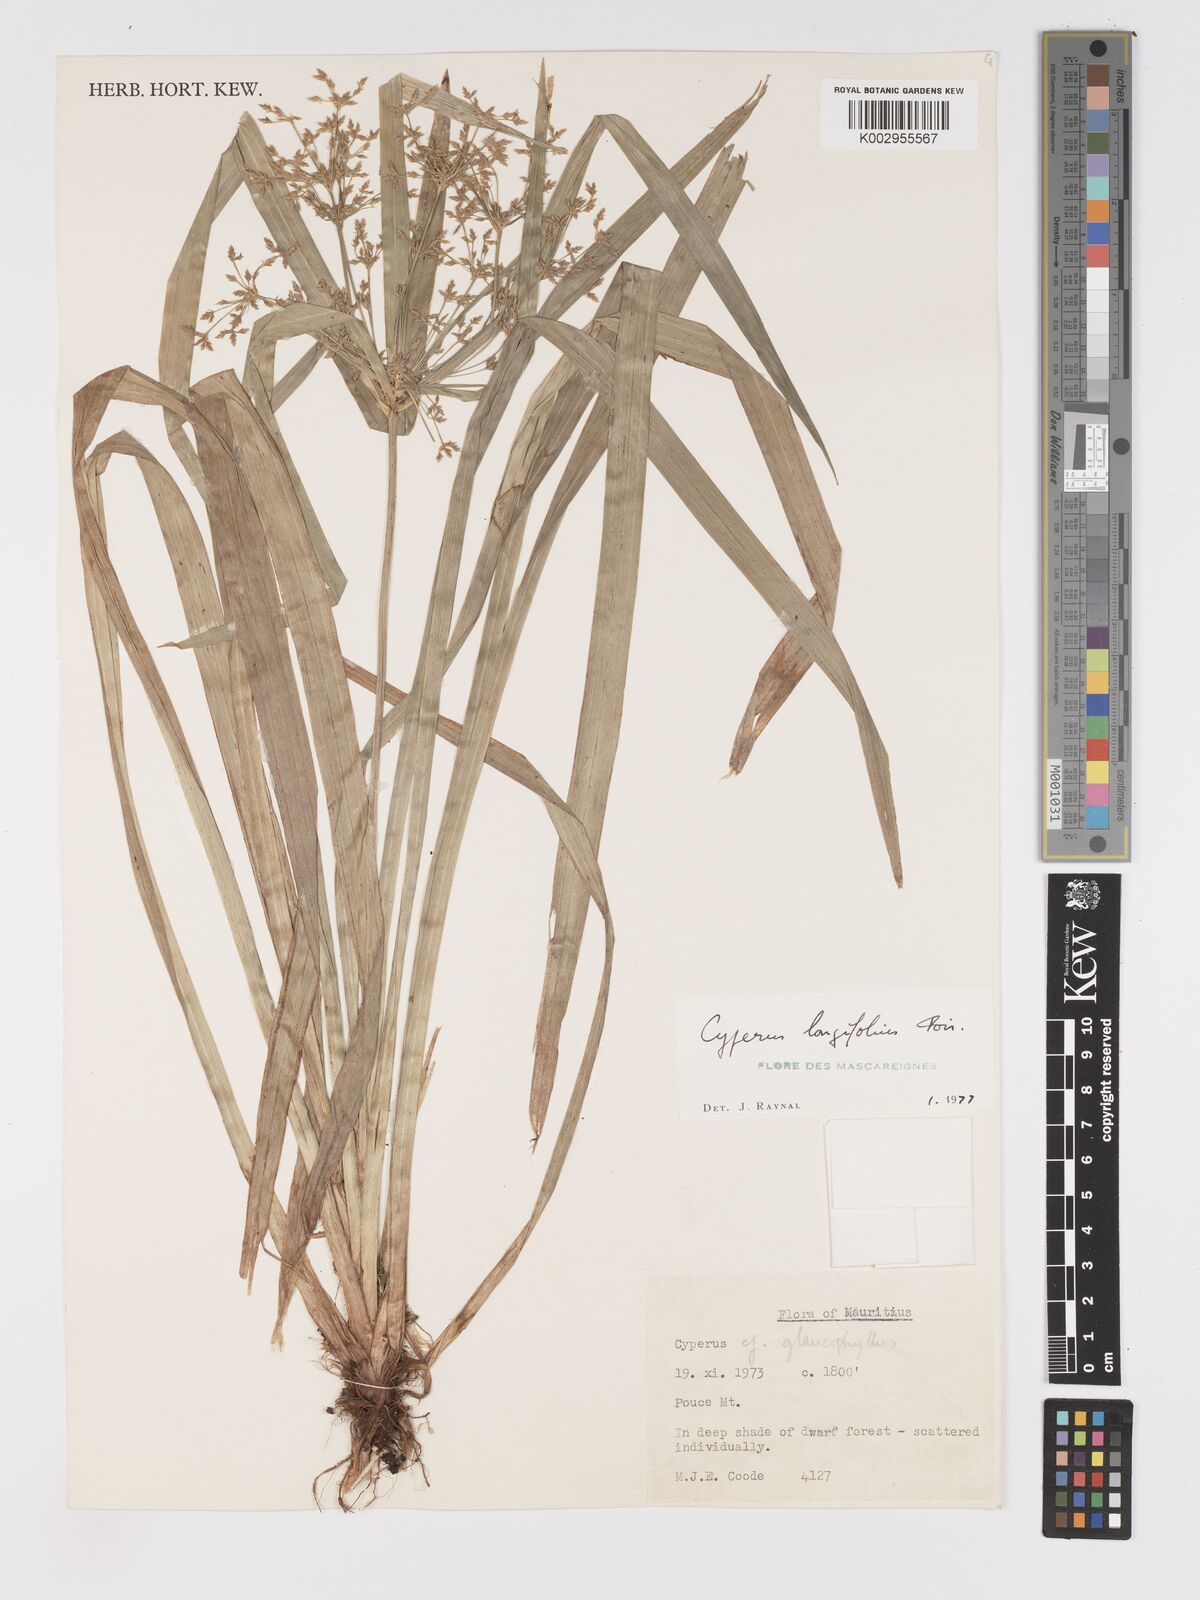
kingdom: Plantae
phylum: Tracheophyta
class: Liliopsida
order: Poales
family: Cyperaceae
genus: Cyperus
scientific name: Cyperus longifolius
